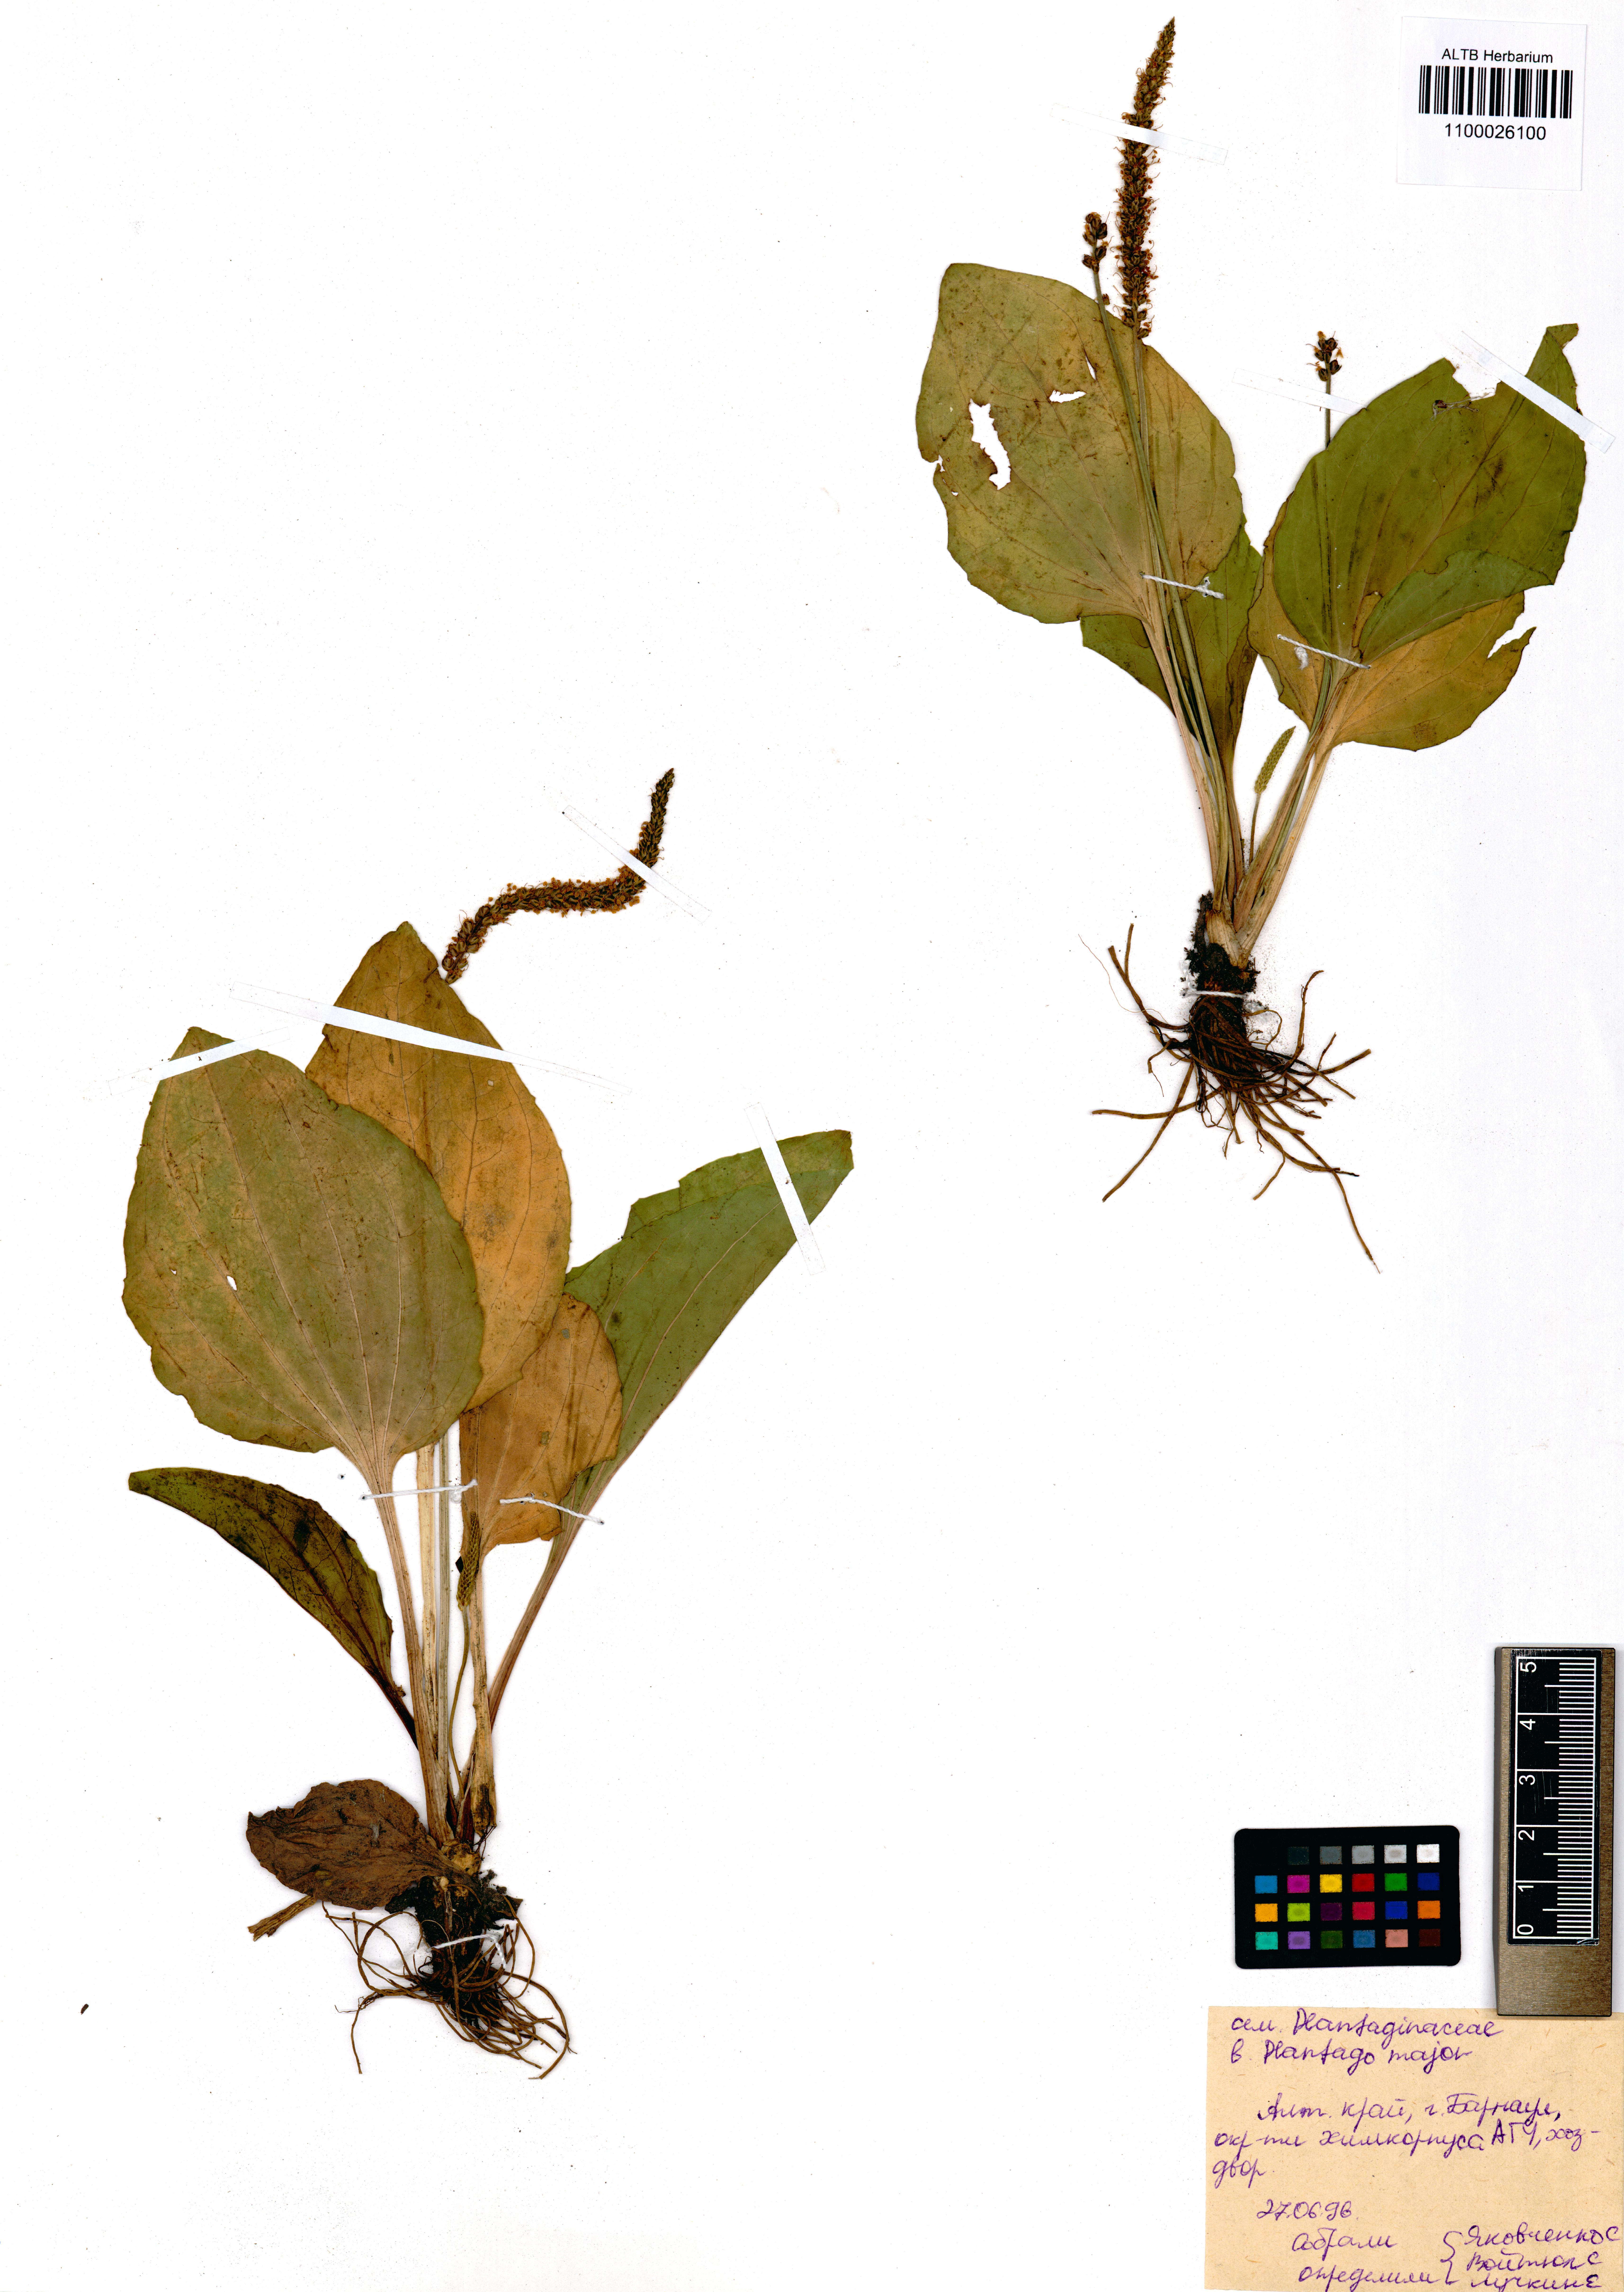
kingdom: Plantae
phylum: Tracheophyta
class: Magnoliopsida
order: Lamiales
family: Plantaginaceae
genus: Plantago
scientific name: Plantago major
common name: Common plantain
